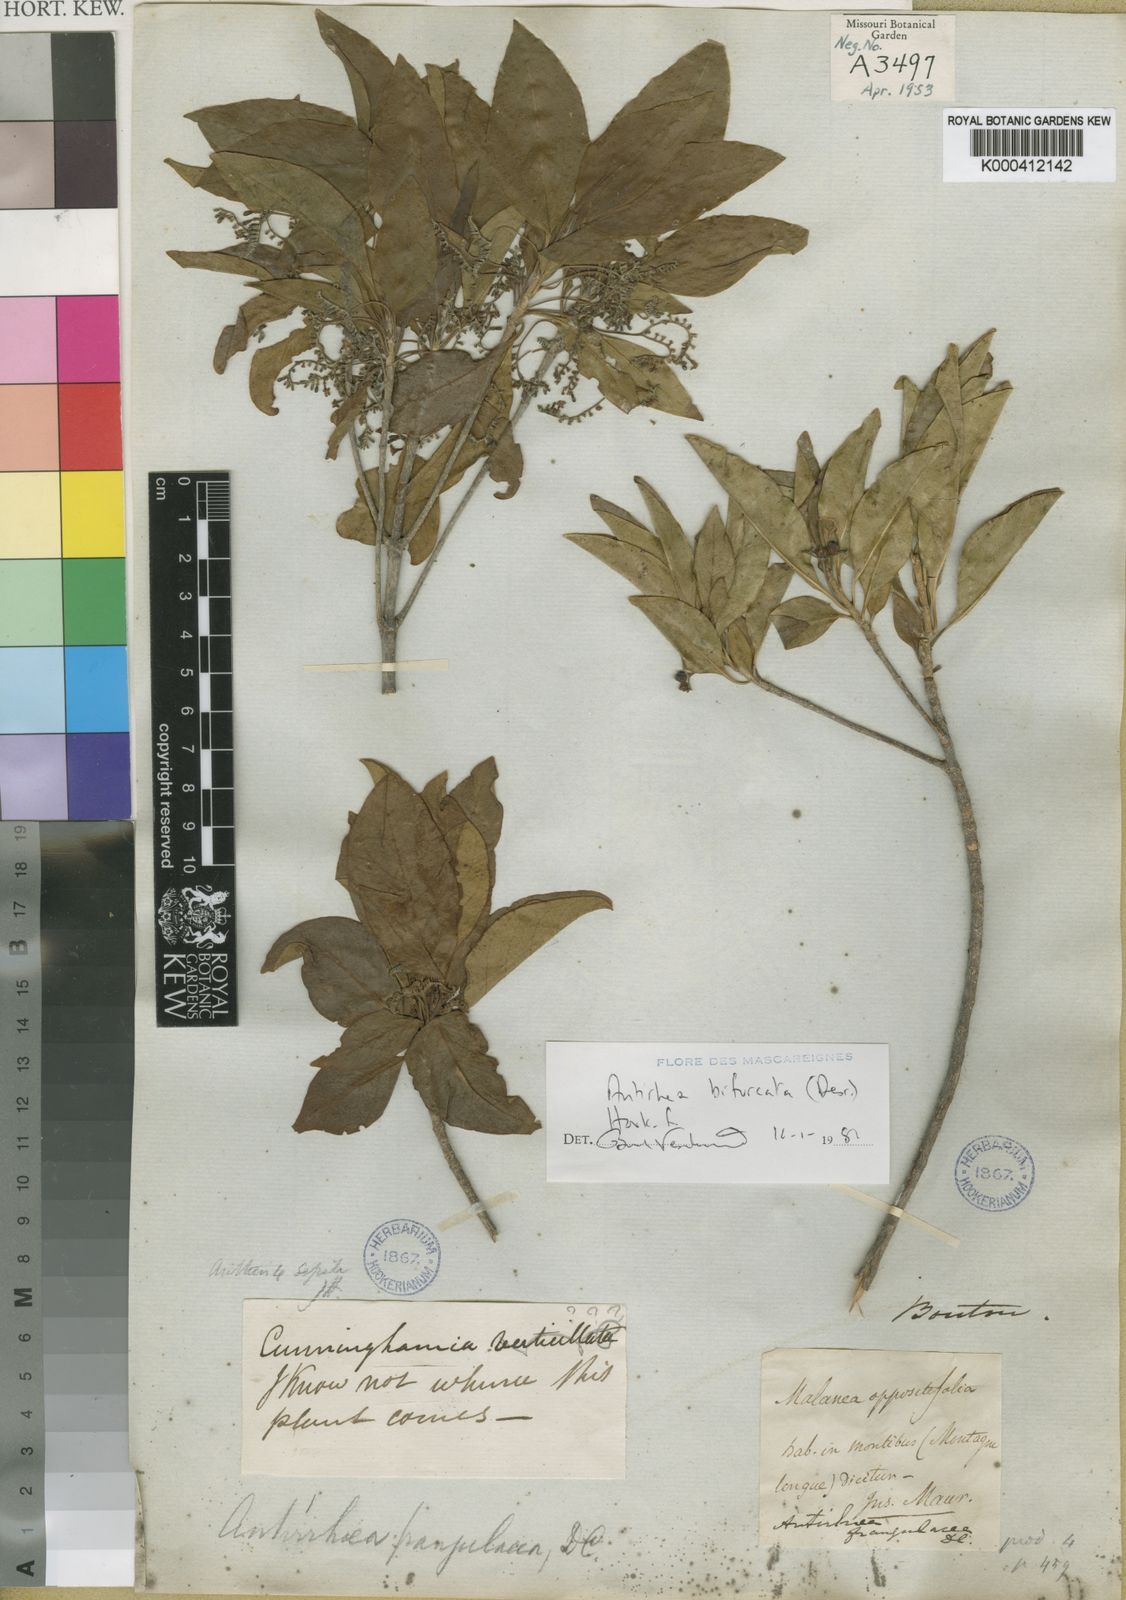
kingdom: Plantae
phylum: Tracheophyta
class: Magnoliopsida
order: Gentianales
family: Rubiaceae
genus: Antirhea
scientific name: Antirhea bifurcata
